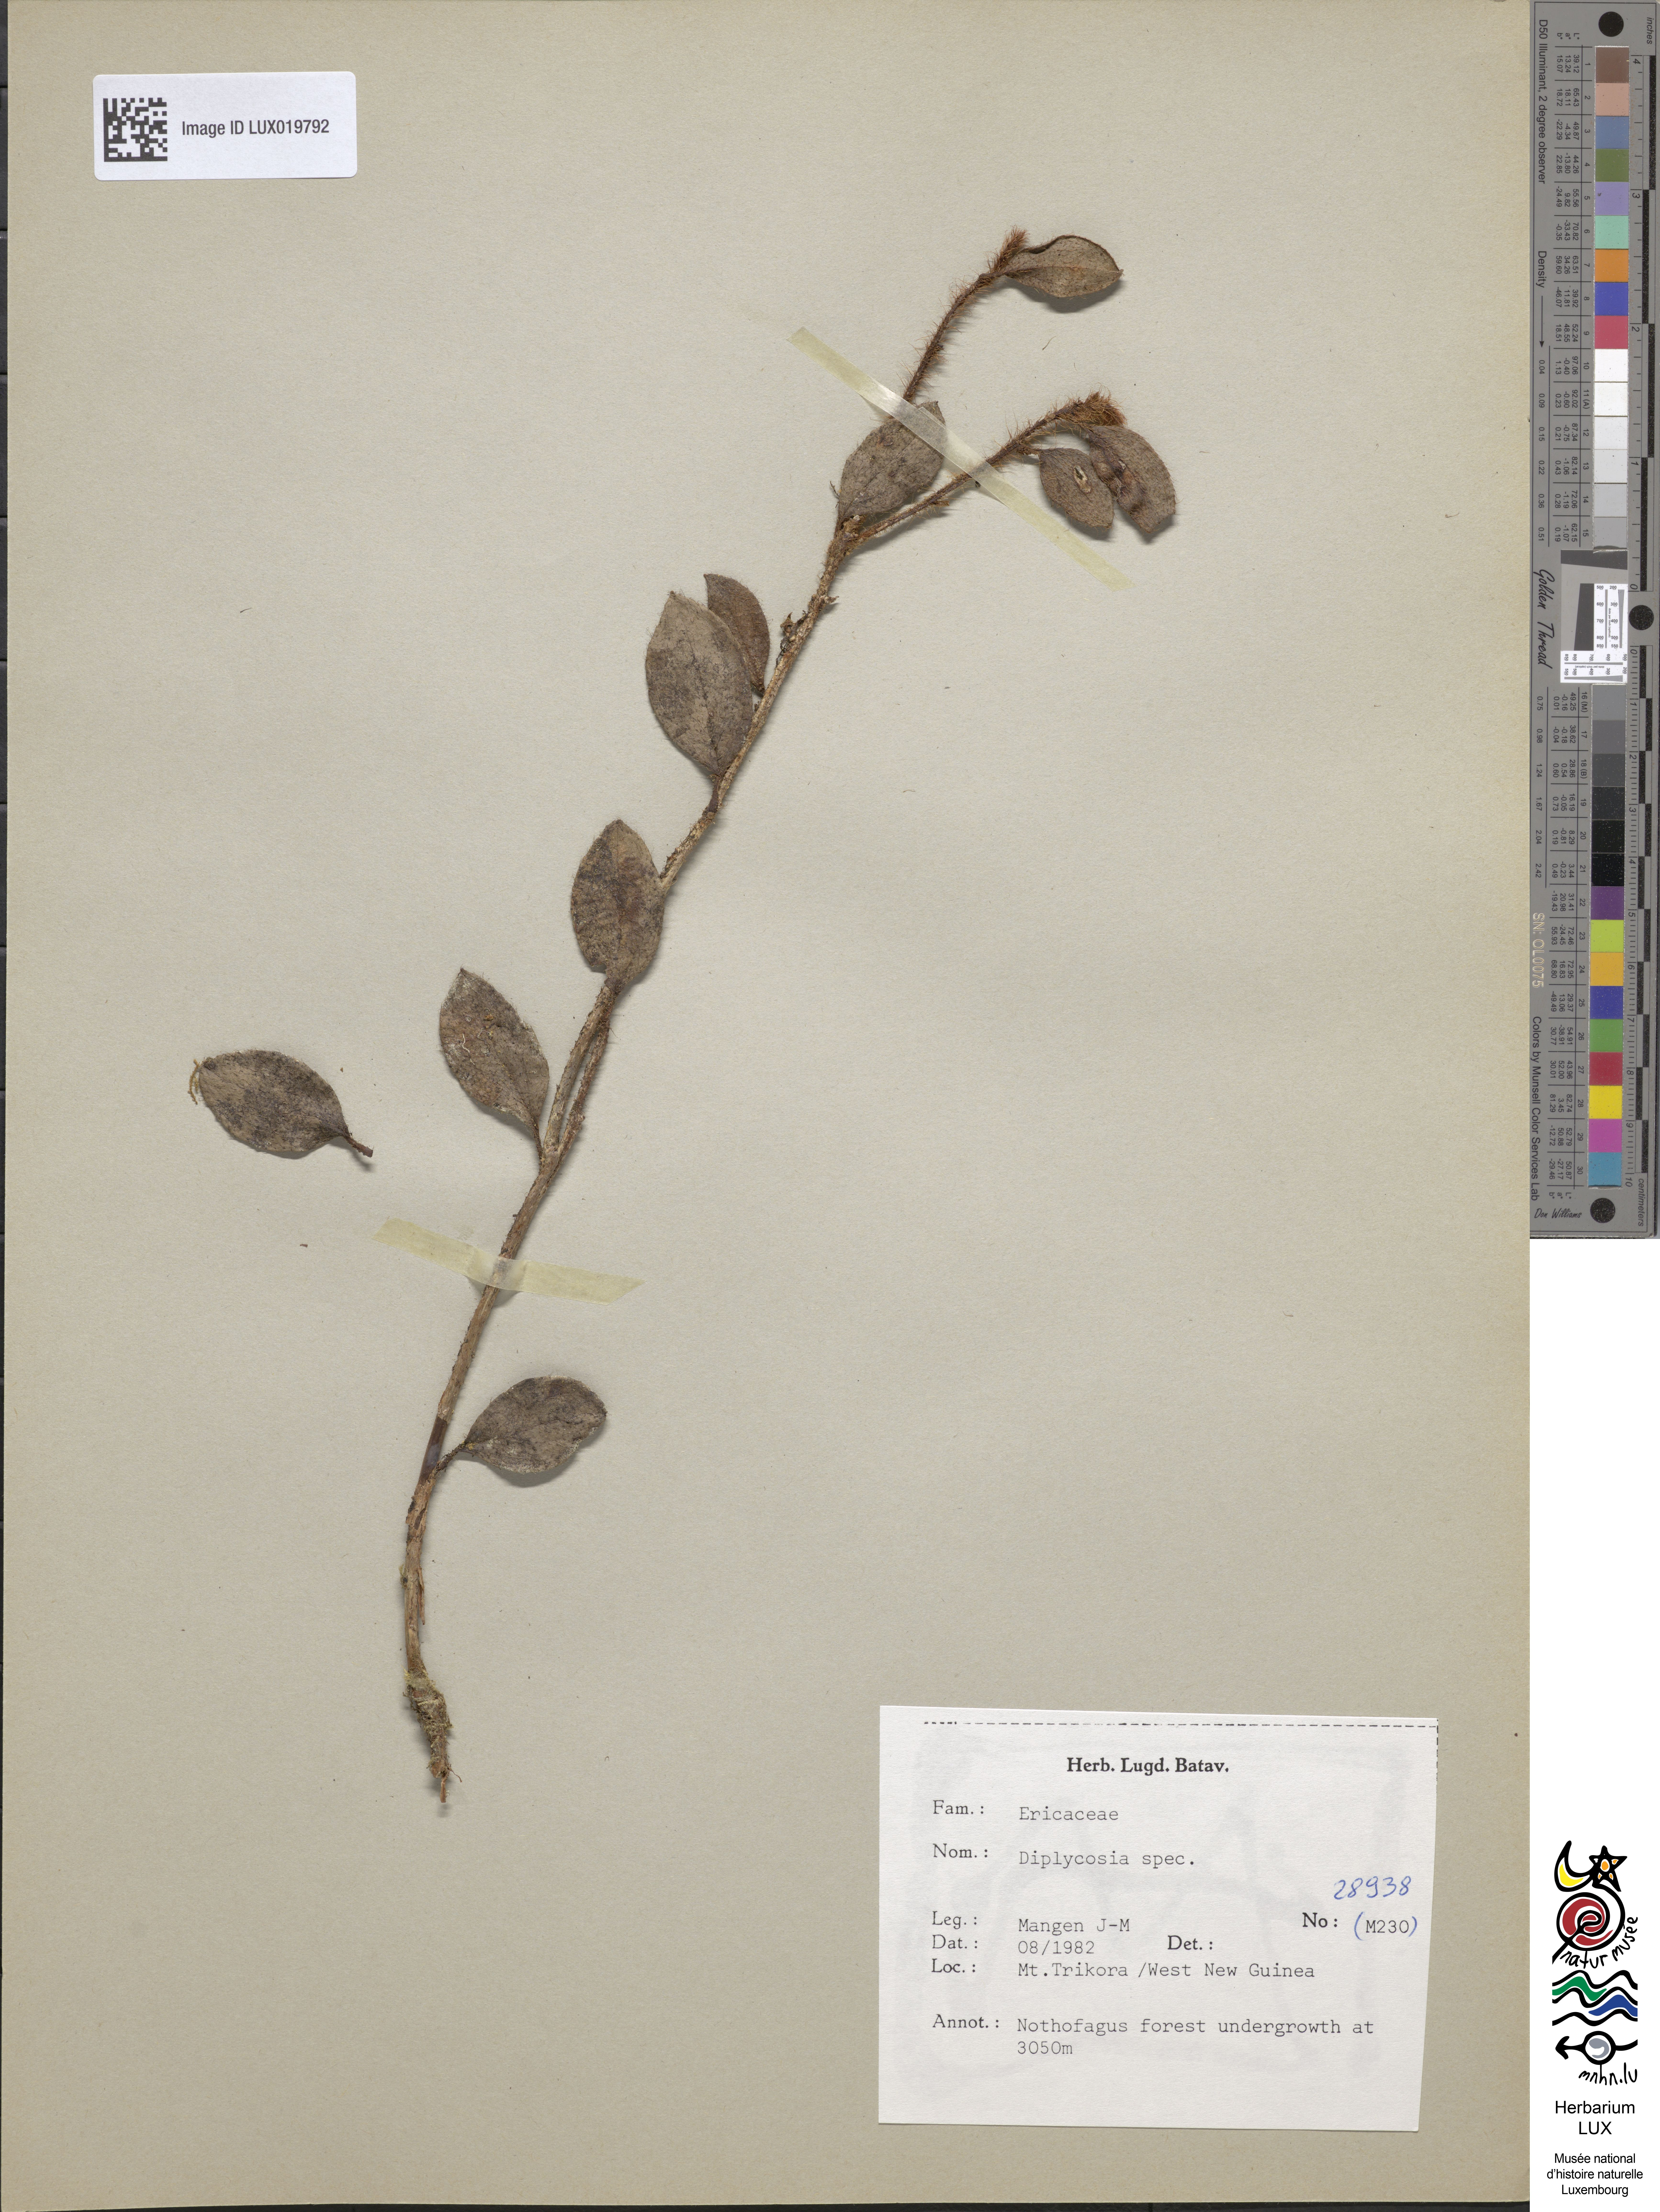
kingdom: Plantae
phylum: Tracheophyta
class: Magnoliopsida
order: Ericales
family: Ericaceae
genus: Gaultheria
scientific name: Gaultheria
